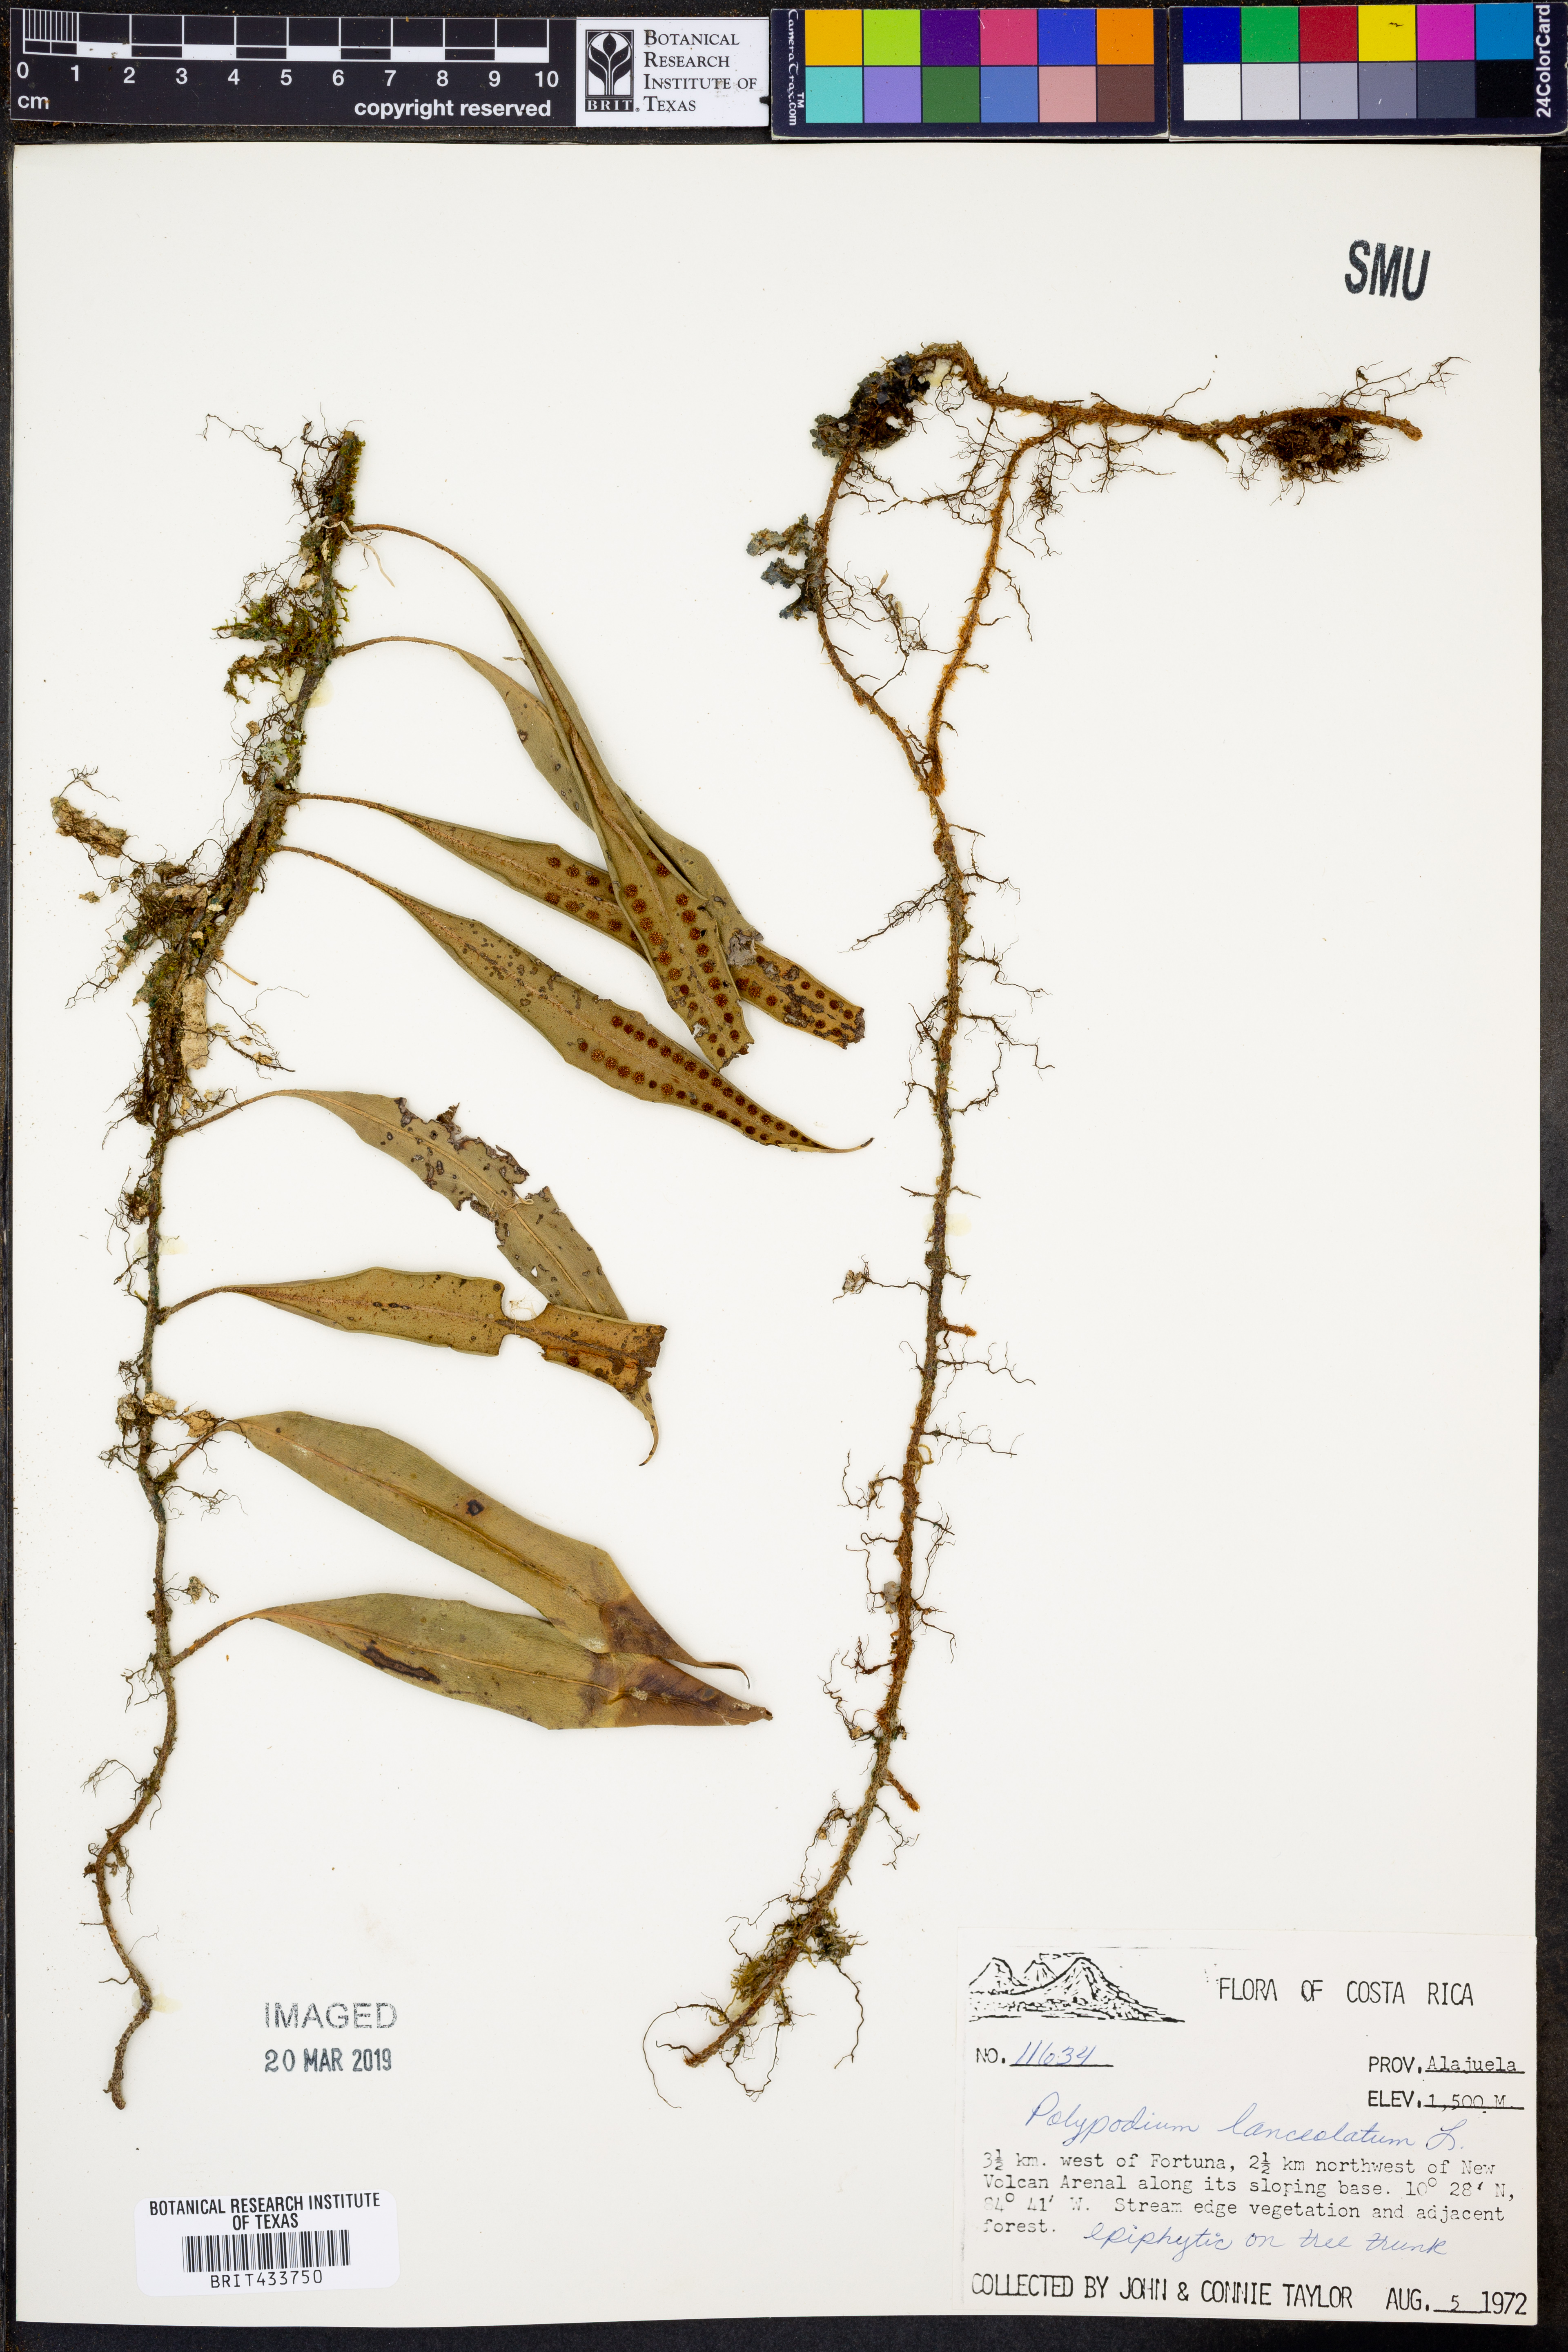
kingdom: Plantae
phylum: Tracheophyta
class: Polypodiopsida
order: Polypodiales
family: Polypodiaceae
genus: Pleopeltis
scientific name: Pleopeltis macrocarpa
